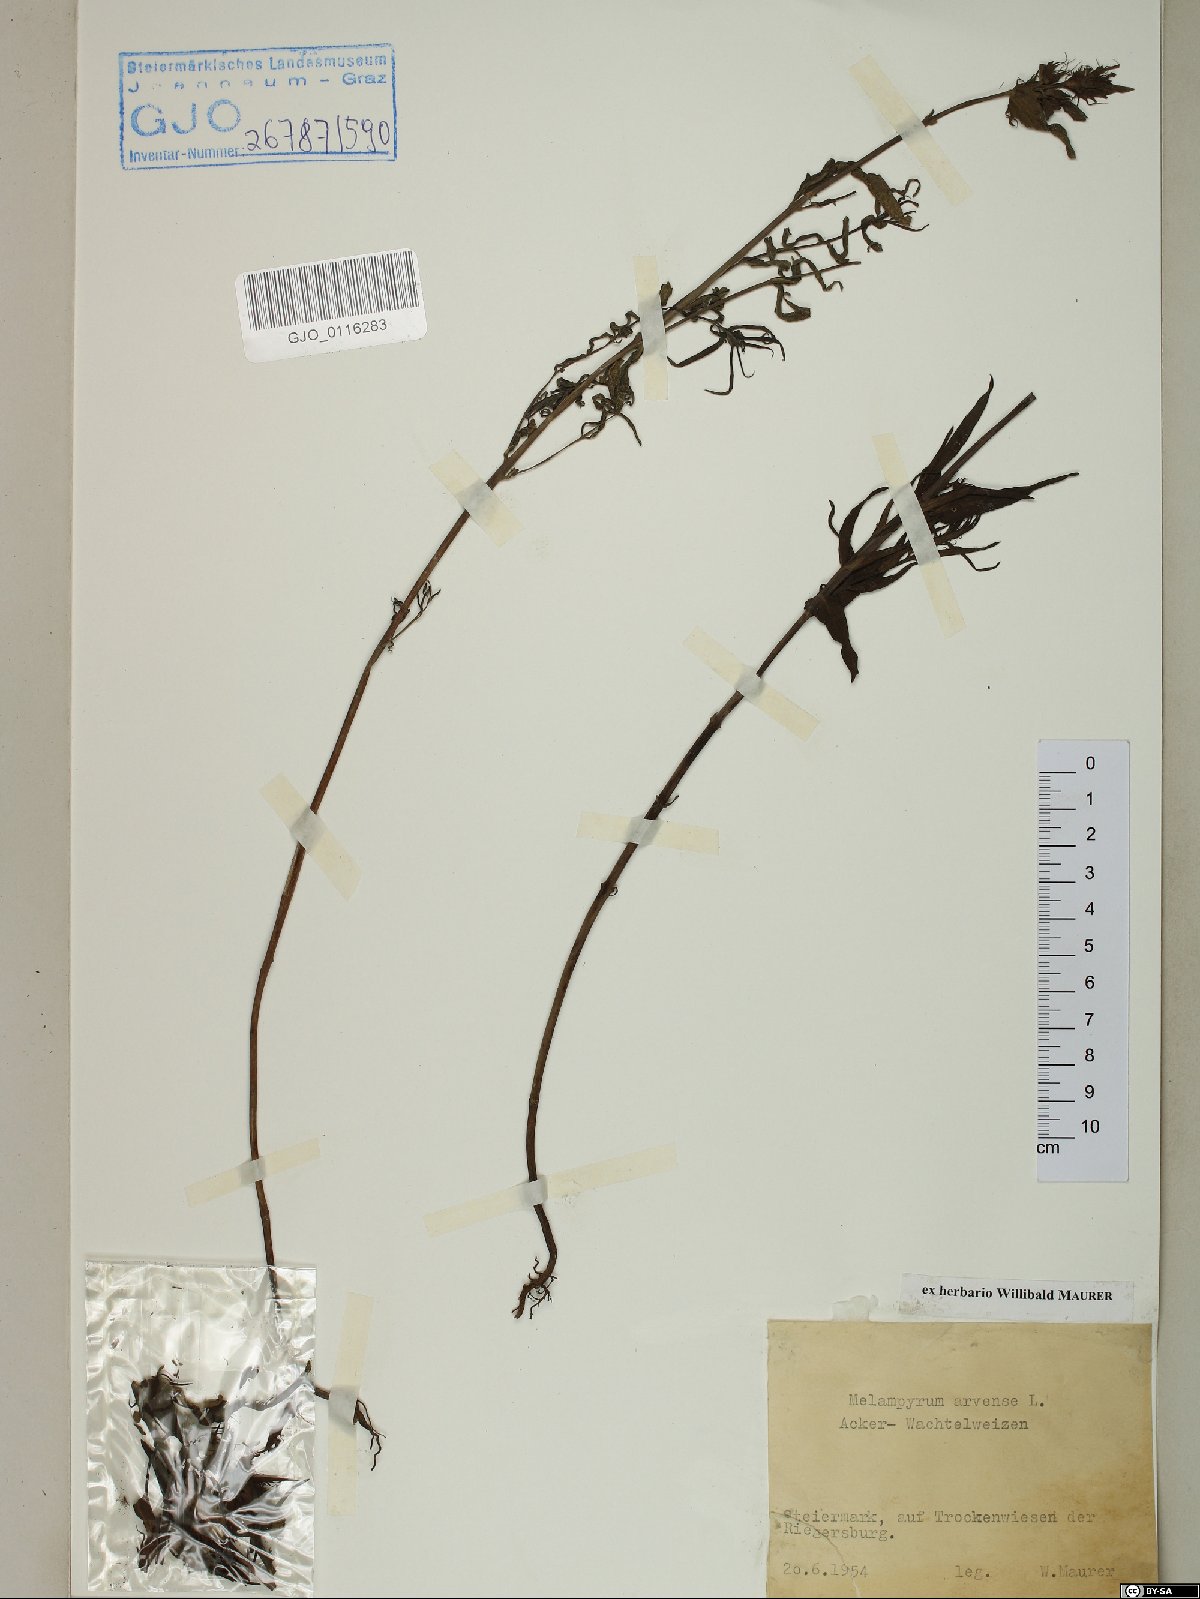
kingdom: Plantae
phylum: Tracheophyta
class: Magnoliopsida
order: Lamiales
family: Orobanchaceae
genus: Melampyrum
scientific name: Melampyrum arvense
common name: Field cow-wheat
